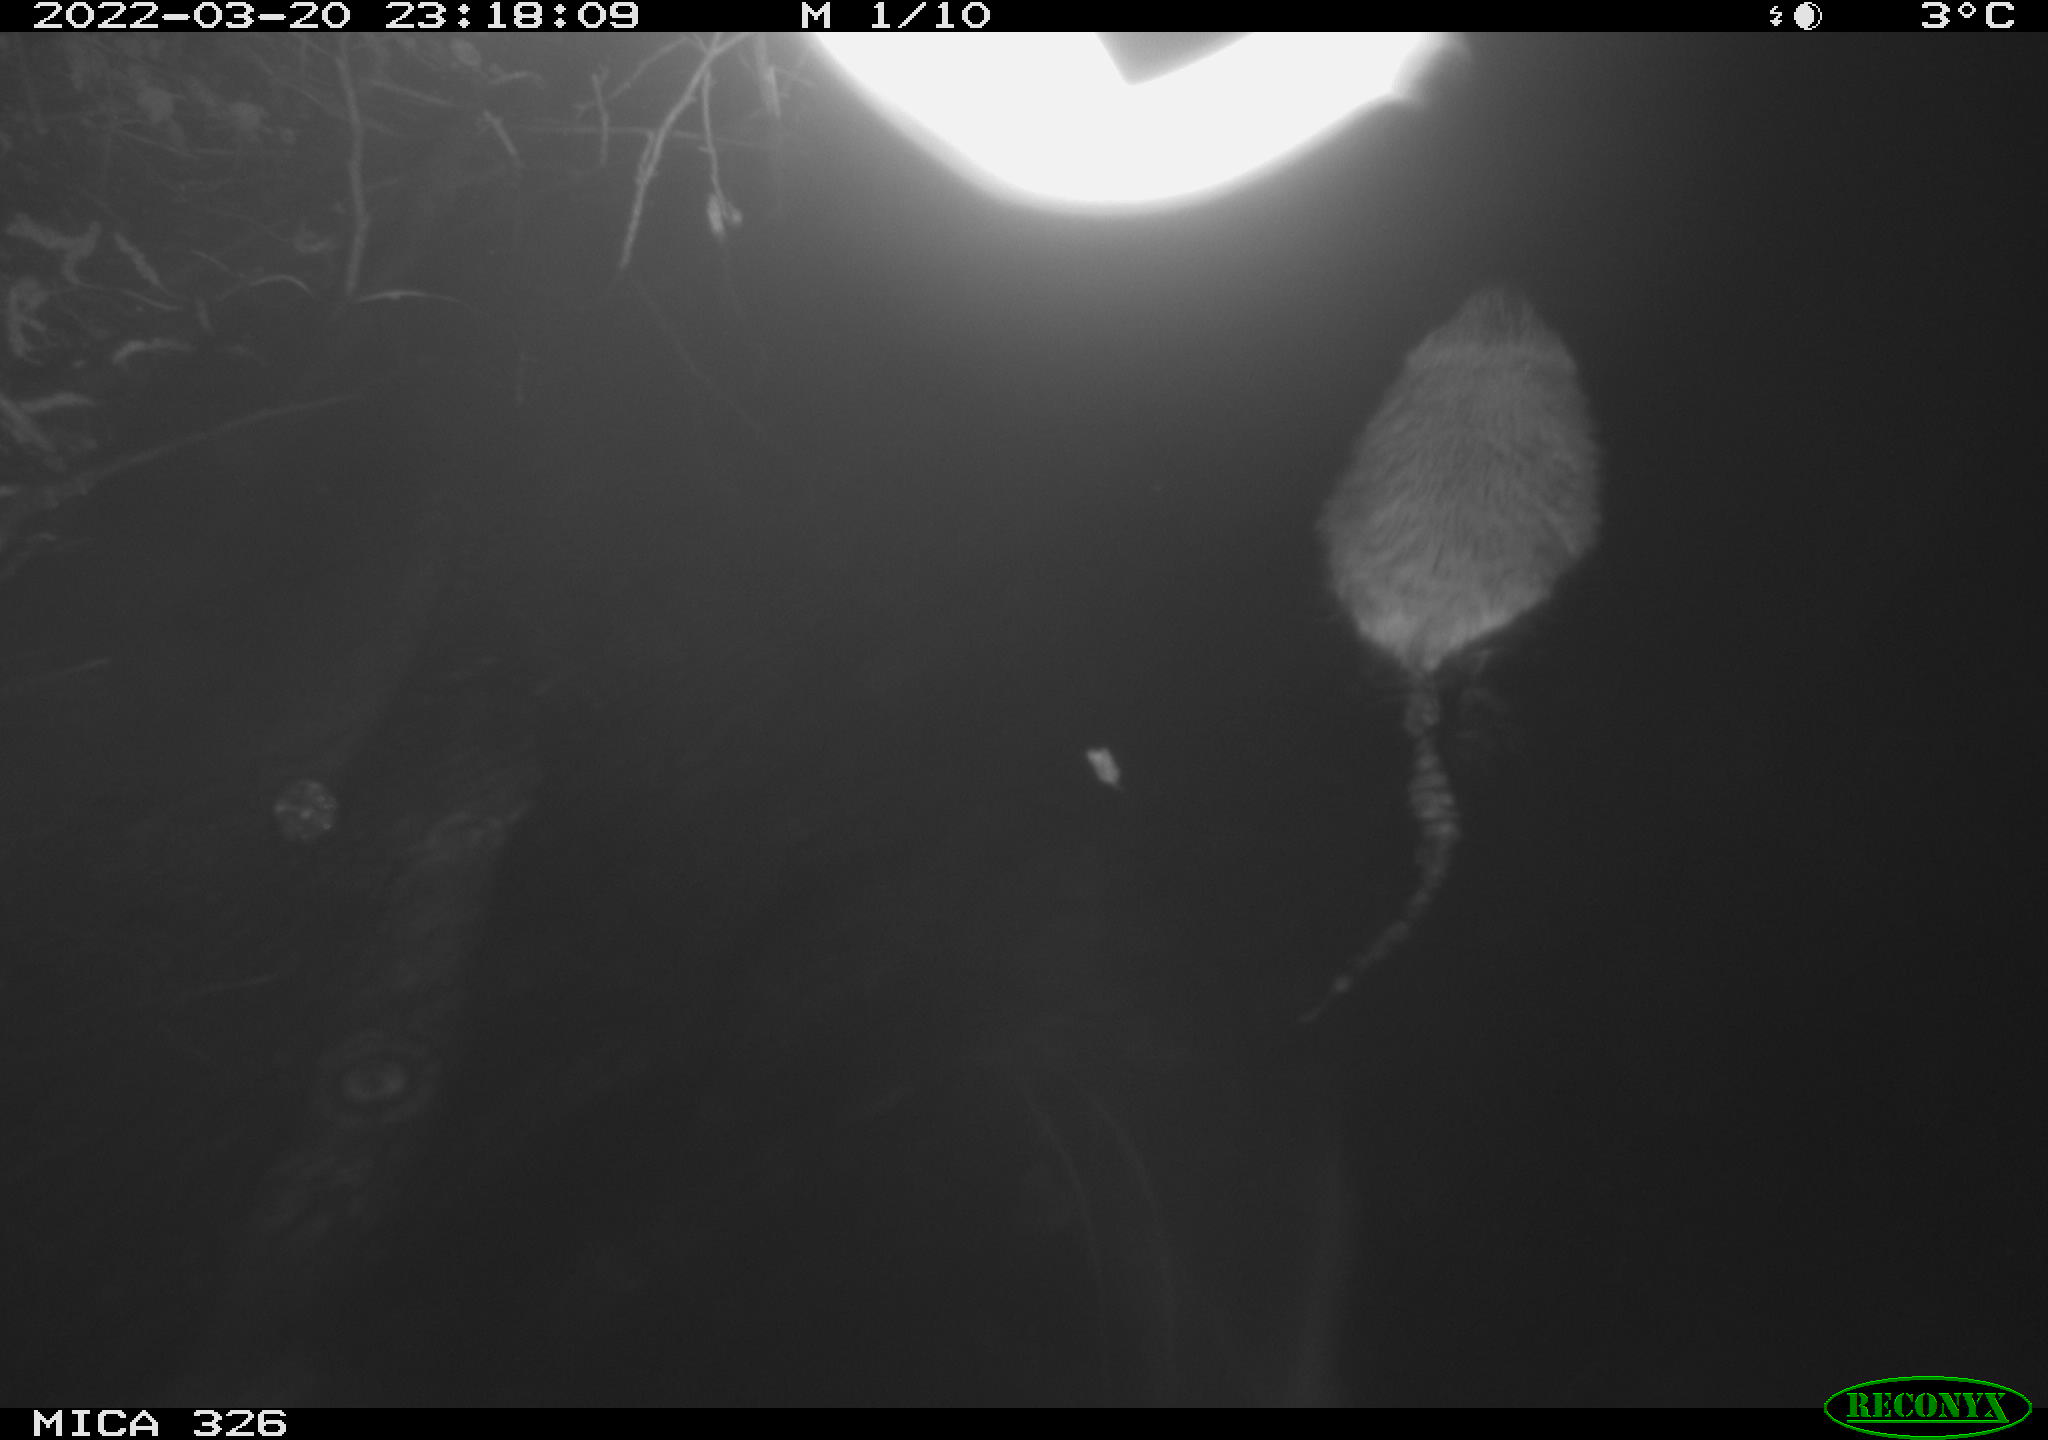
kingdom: Animalia
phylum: Chordata
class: Mammalia
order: Rodentia
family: Cricetidae
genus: Ondatra
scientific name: Ondatra zibethicus
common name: Muskrat
